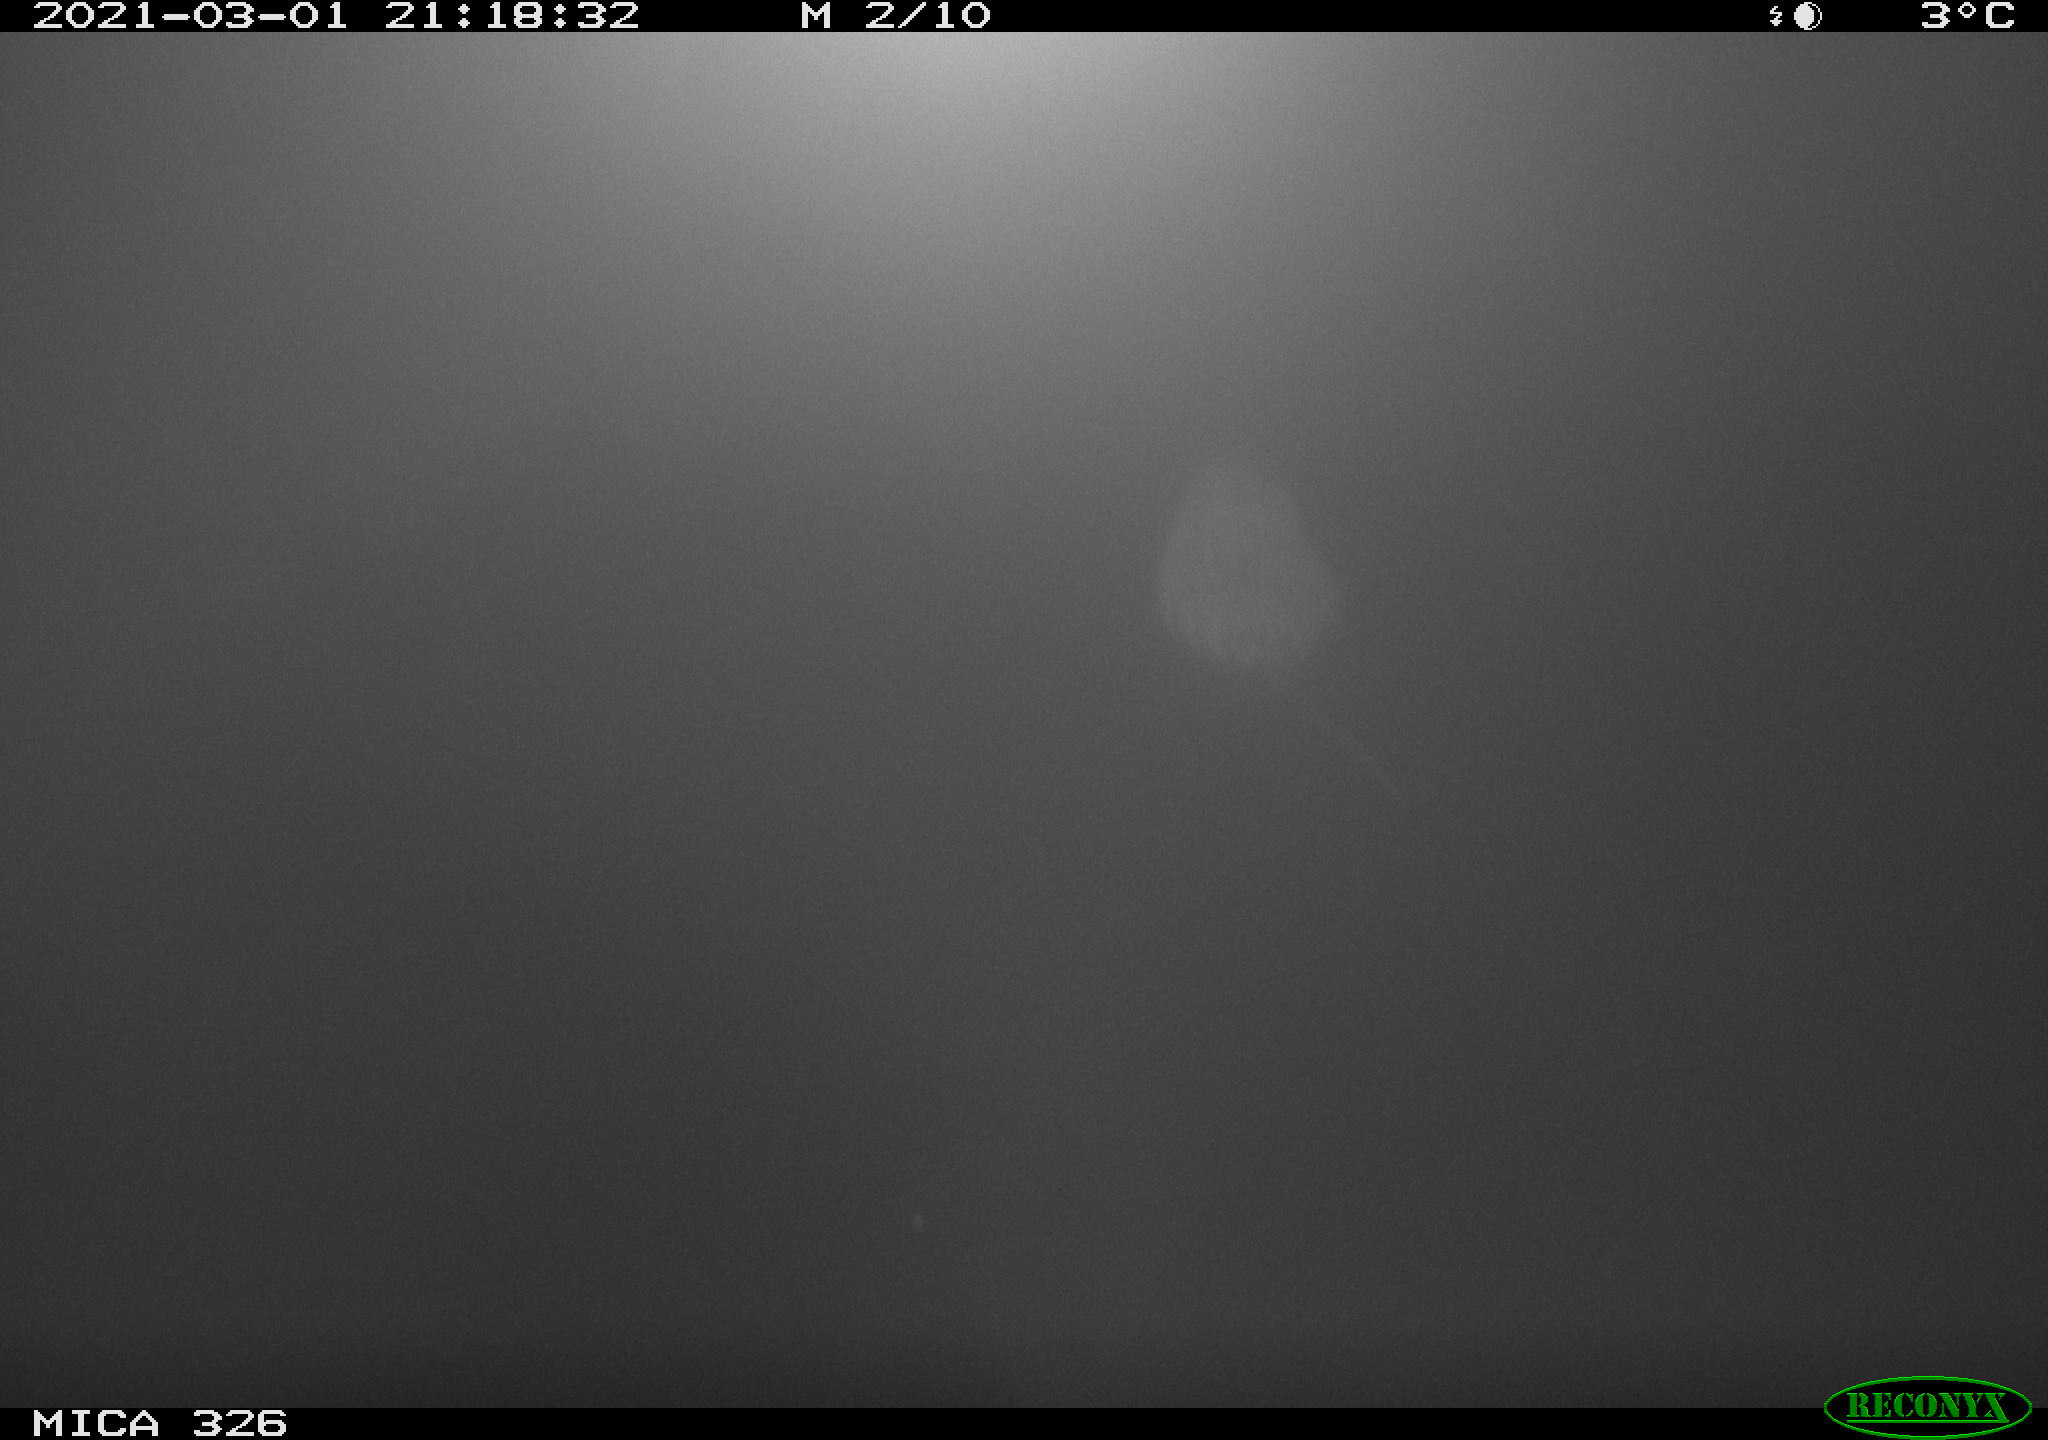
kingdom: Animalia
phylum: Chordata
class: Mammalia
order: Rodentia
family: Cricetidae
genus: Ondatra
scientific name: Ondatra zibethicus
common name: Muskrat
